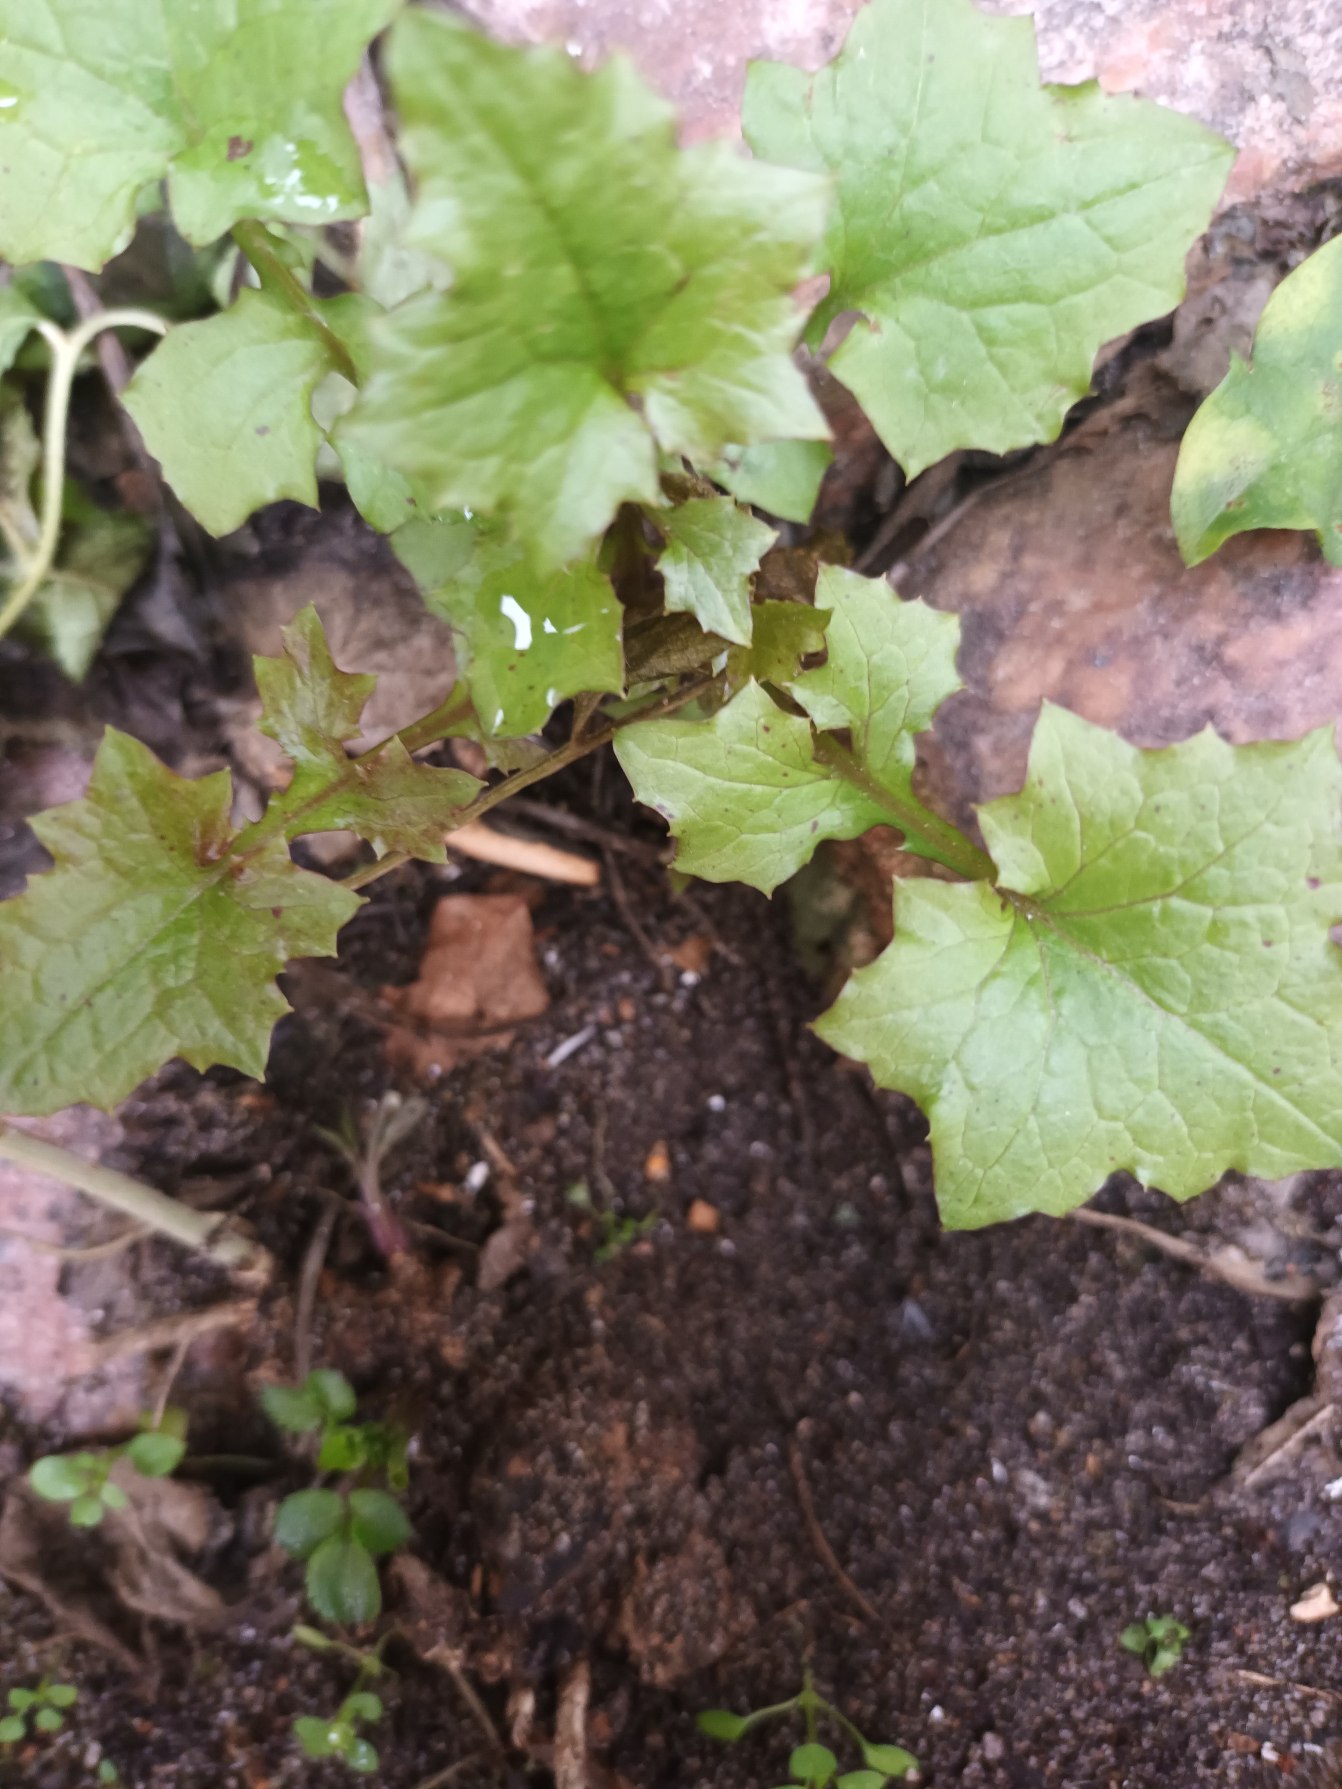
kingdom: Plantae
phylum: Tracheophyta
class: Magnoliopsida
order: Asterales
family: Asteraceae
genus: Mycelis
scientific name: Mycelis muralis
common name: Skov-salat
